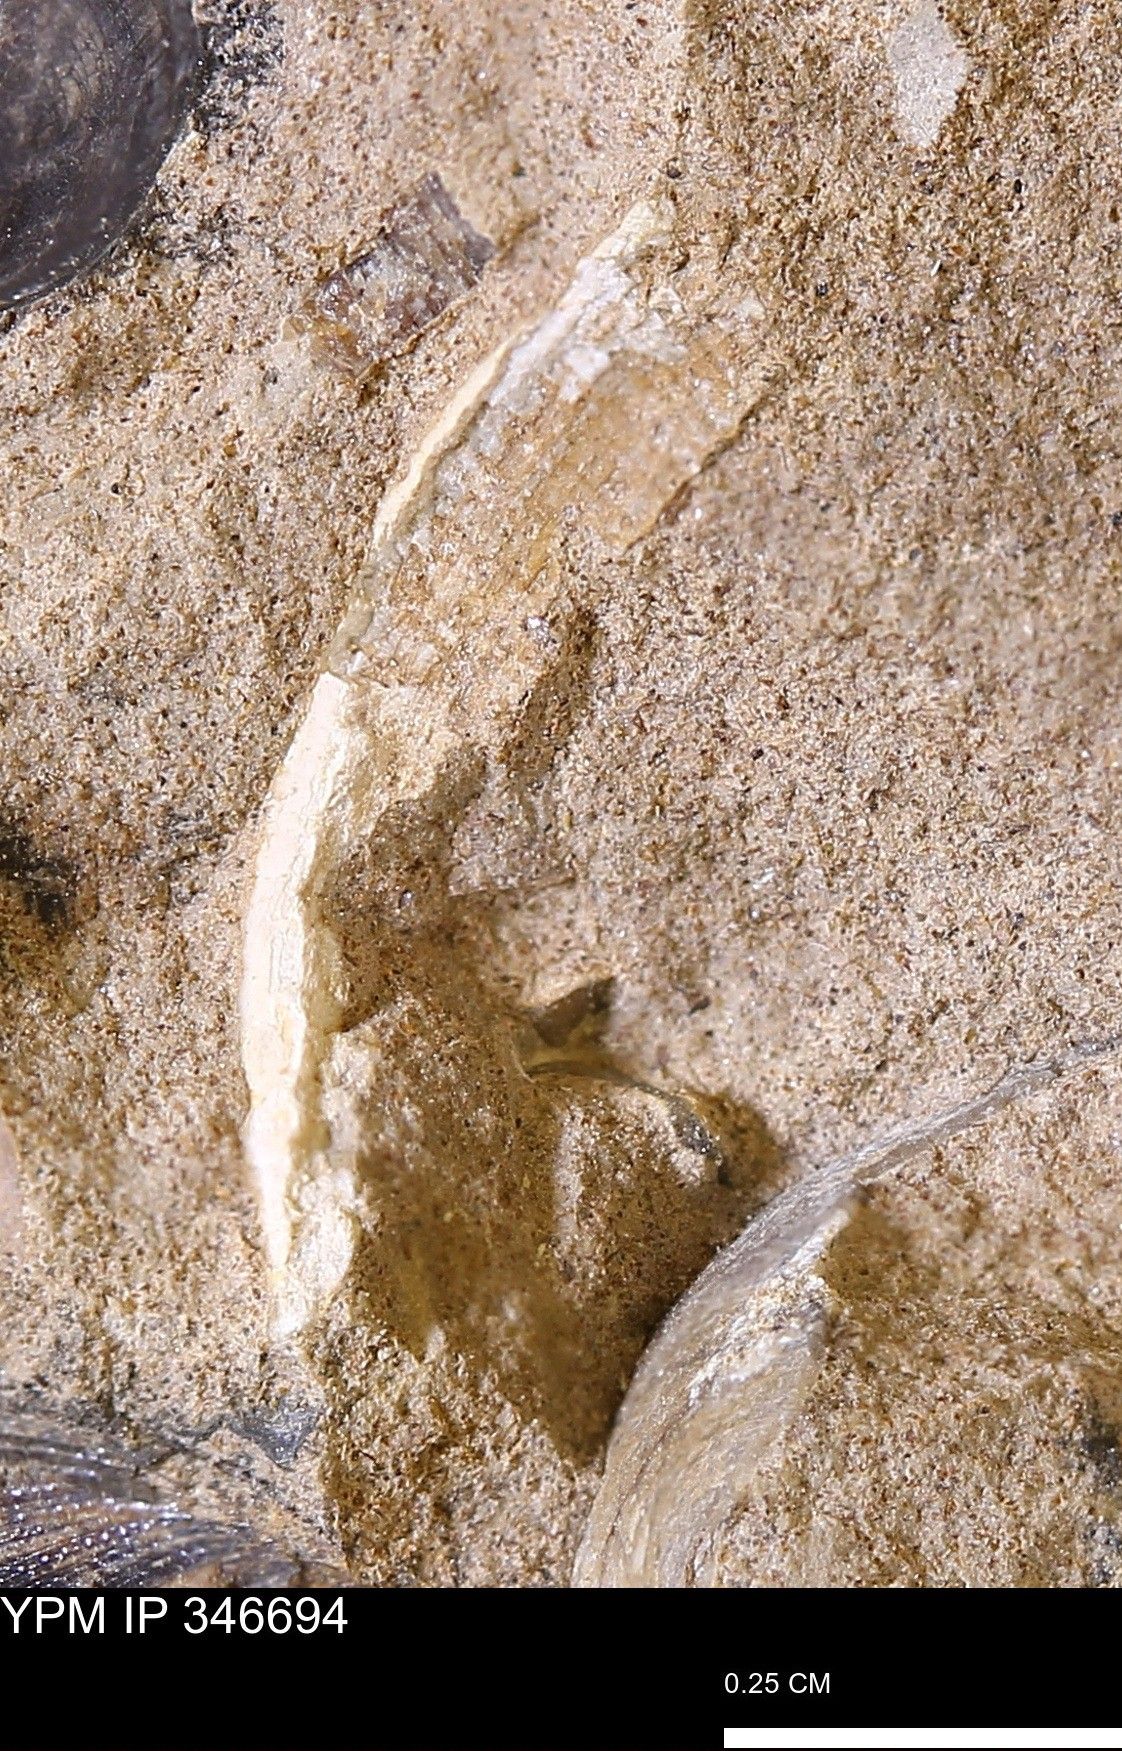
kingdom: Animalia
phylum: Mollusca
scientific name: Mollusca
